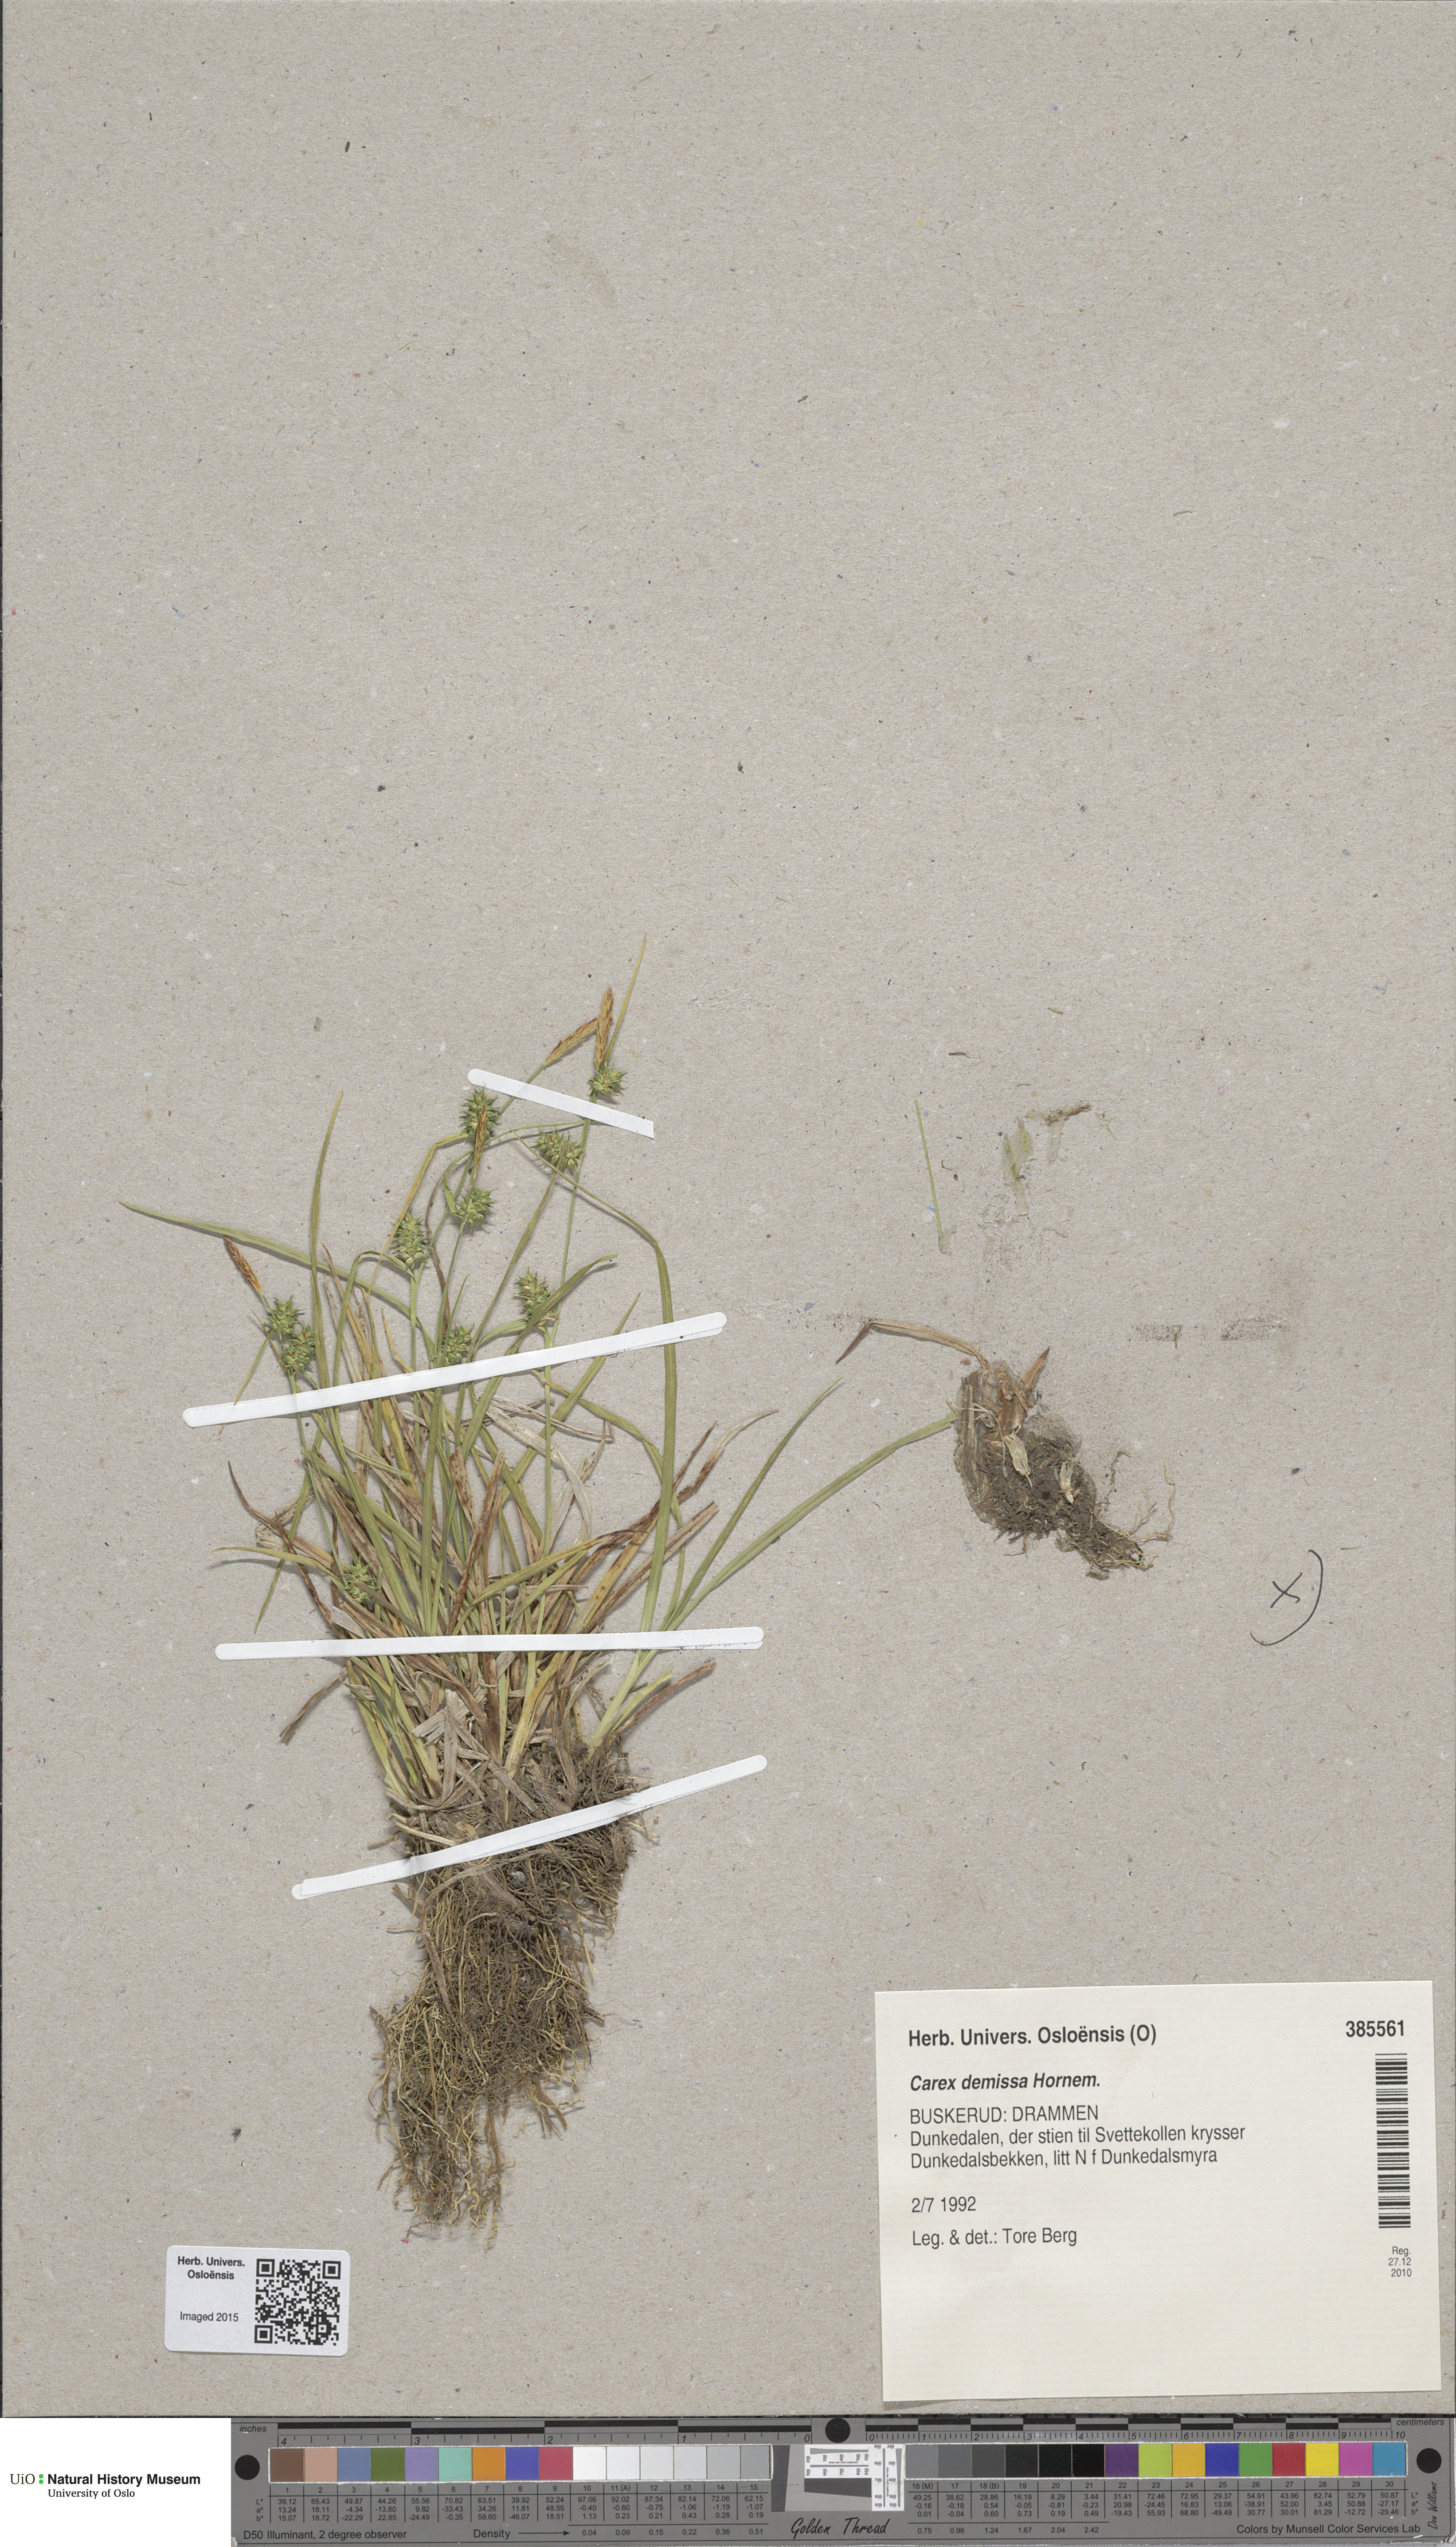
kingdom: Plantae
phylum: Tracheophyta
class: Liliopsida
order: Poales
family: Cyperaceae
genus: Carex
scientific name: Carex demissa
